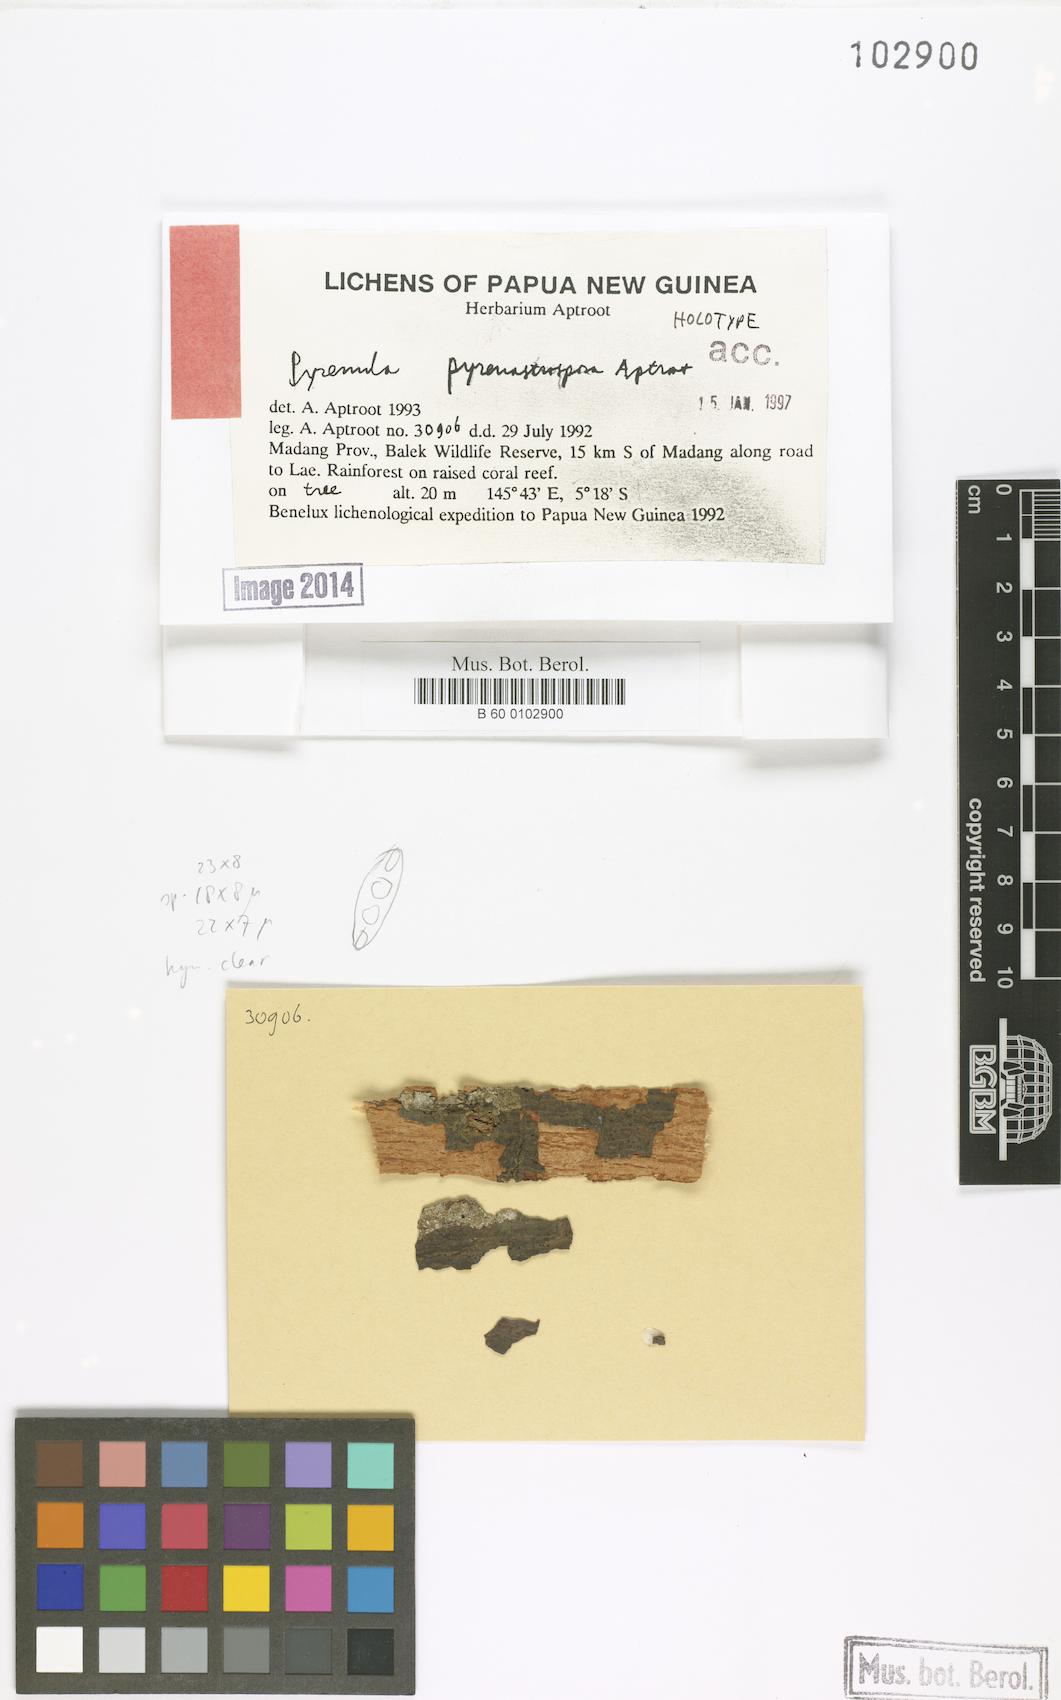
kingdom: Fungi
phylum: Ascomycota
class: Eurotiomycetes
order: Pyrenulales
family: Pyrenulaceae
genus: Pyrenula
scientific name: Pyrenula
